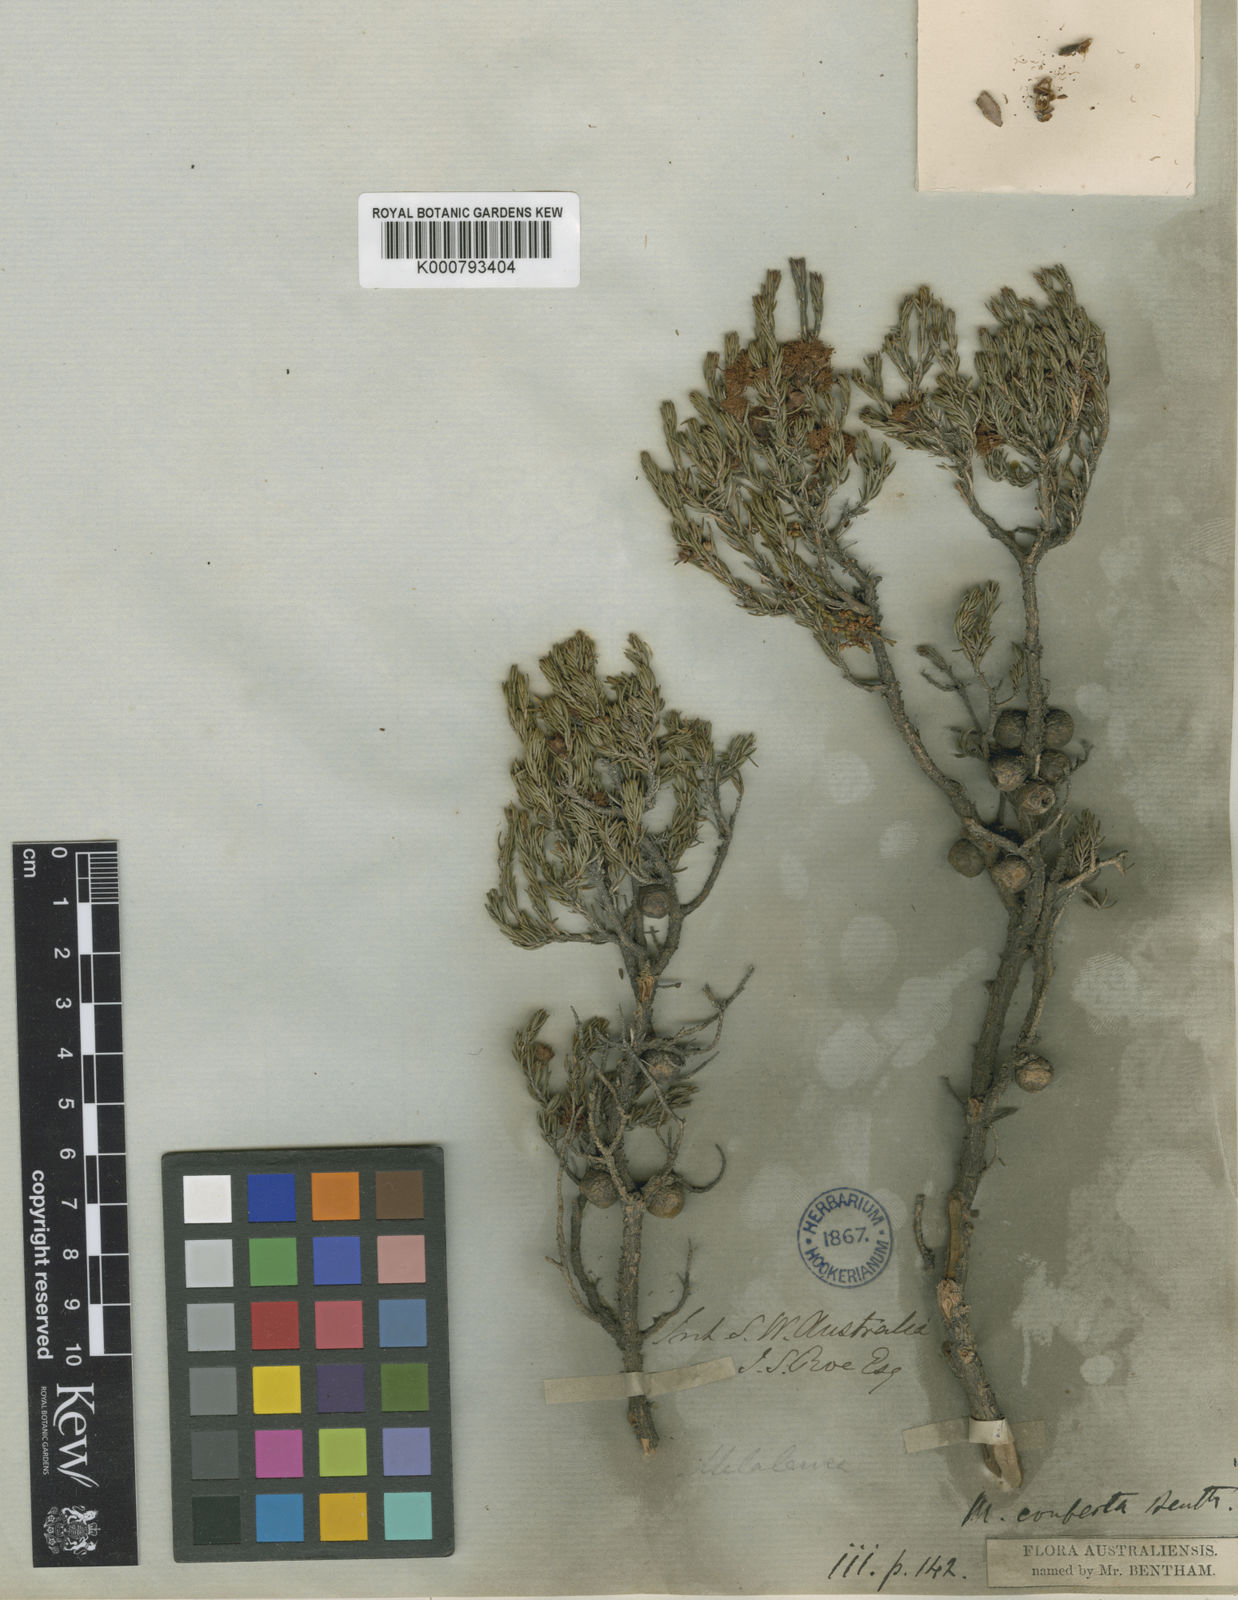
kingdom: Plantae
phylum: Tracheophyta
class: Magnoliopsida
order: Myrtales
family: Myrtaceae
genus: Melaleuca
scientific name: Melaleuca leucadendra
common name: Weeping paperbark
